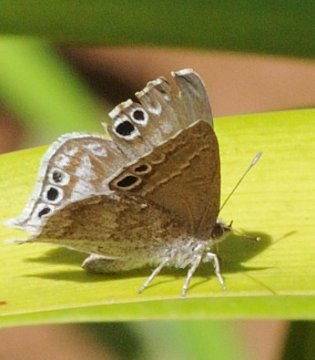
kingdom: Animalia
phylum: Arthropoda
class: Insecta
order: Lepidoptera
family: Lycaenidae
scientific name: Lycaenidae
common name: Coppers
